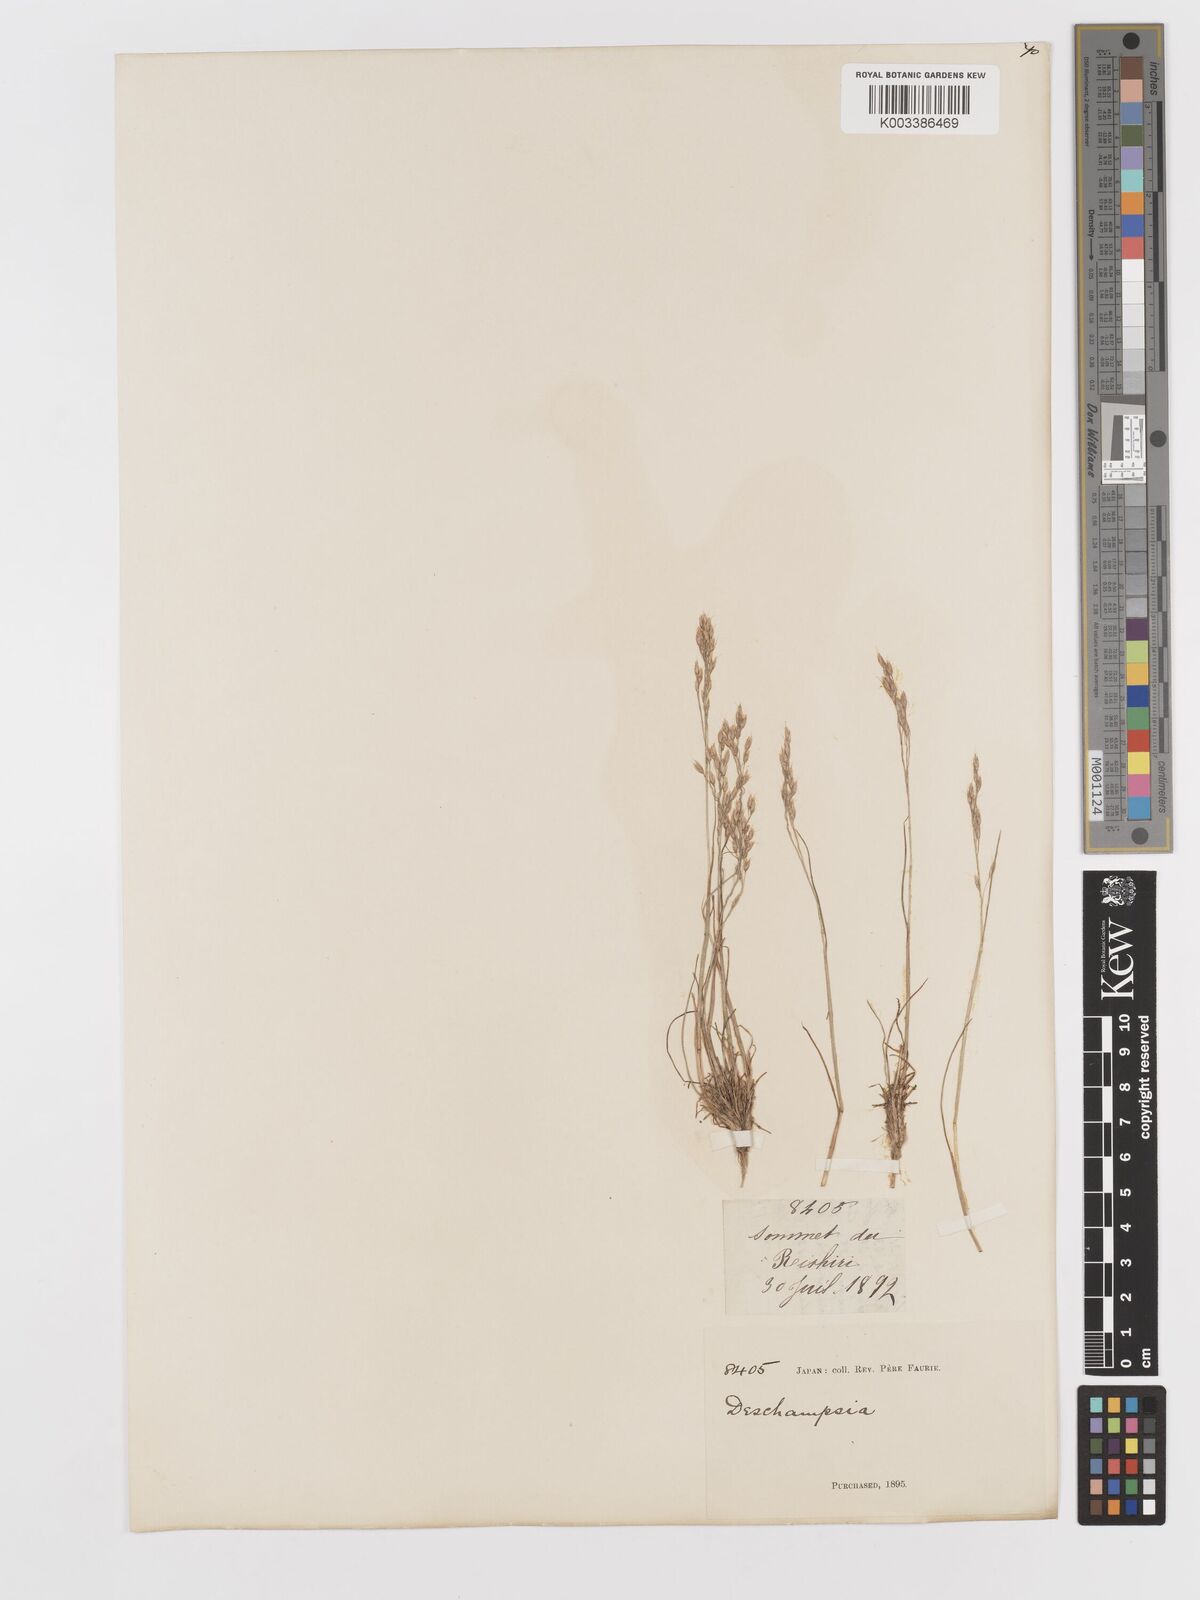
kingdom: Plantae
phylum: Tracheophyta
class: Liliopsida
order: Poales
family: Poaceae
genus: Avenella
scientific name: Avenella flexuosa
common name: Wavy hairgrass
